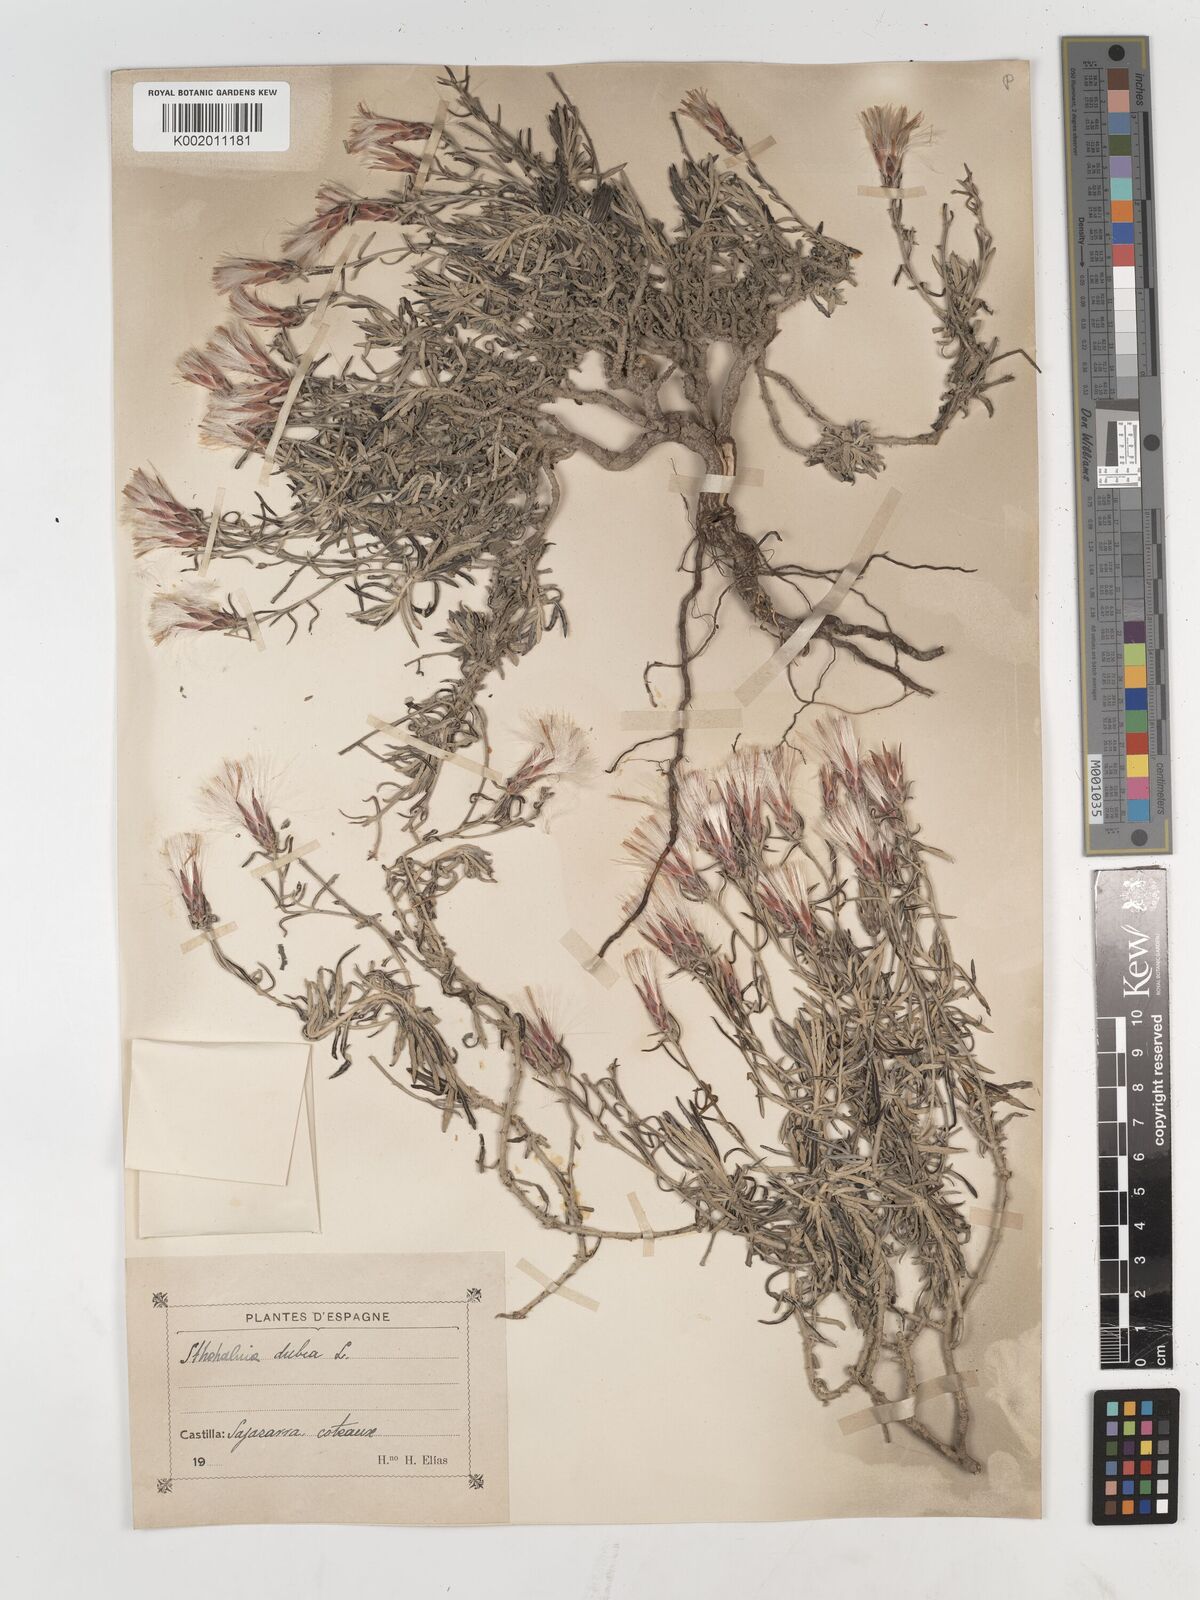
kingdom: Plantae
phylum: Tracheophyta
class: Magnoliopsida
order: Asterales
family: Asteraceae
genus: Staehelina
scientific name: Staehelina dubia
